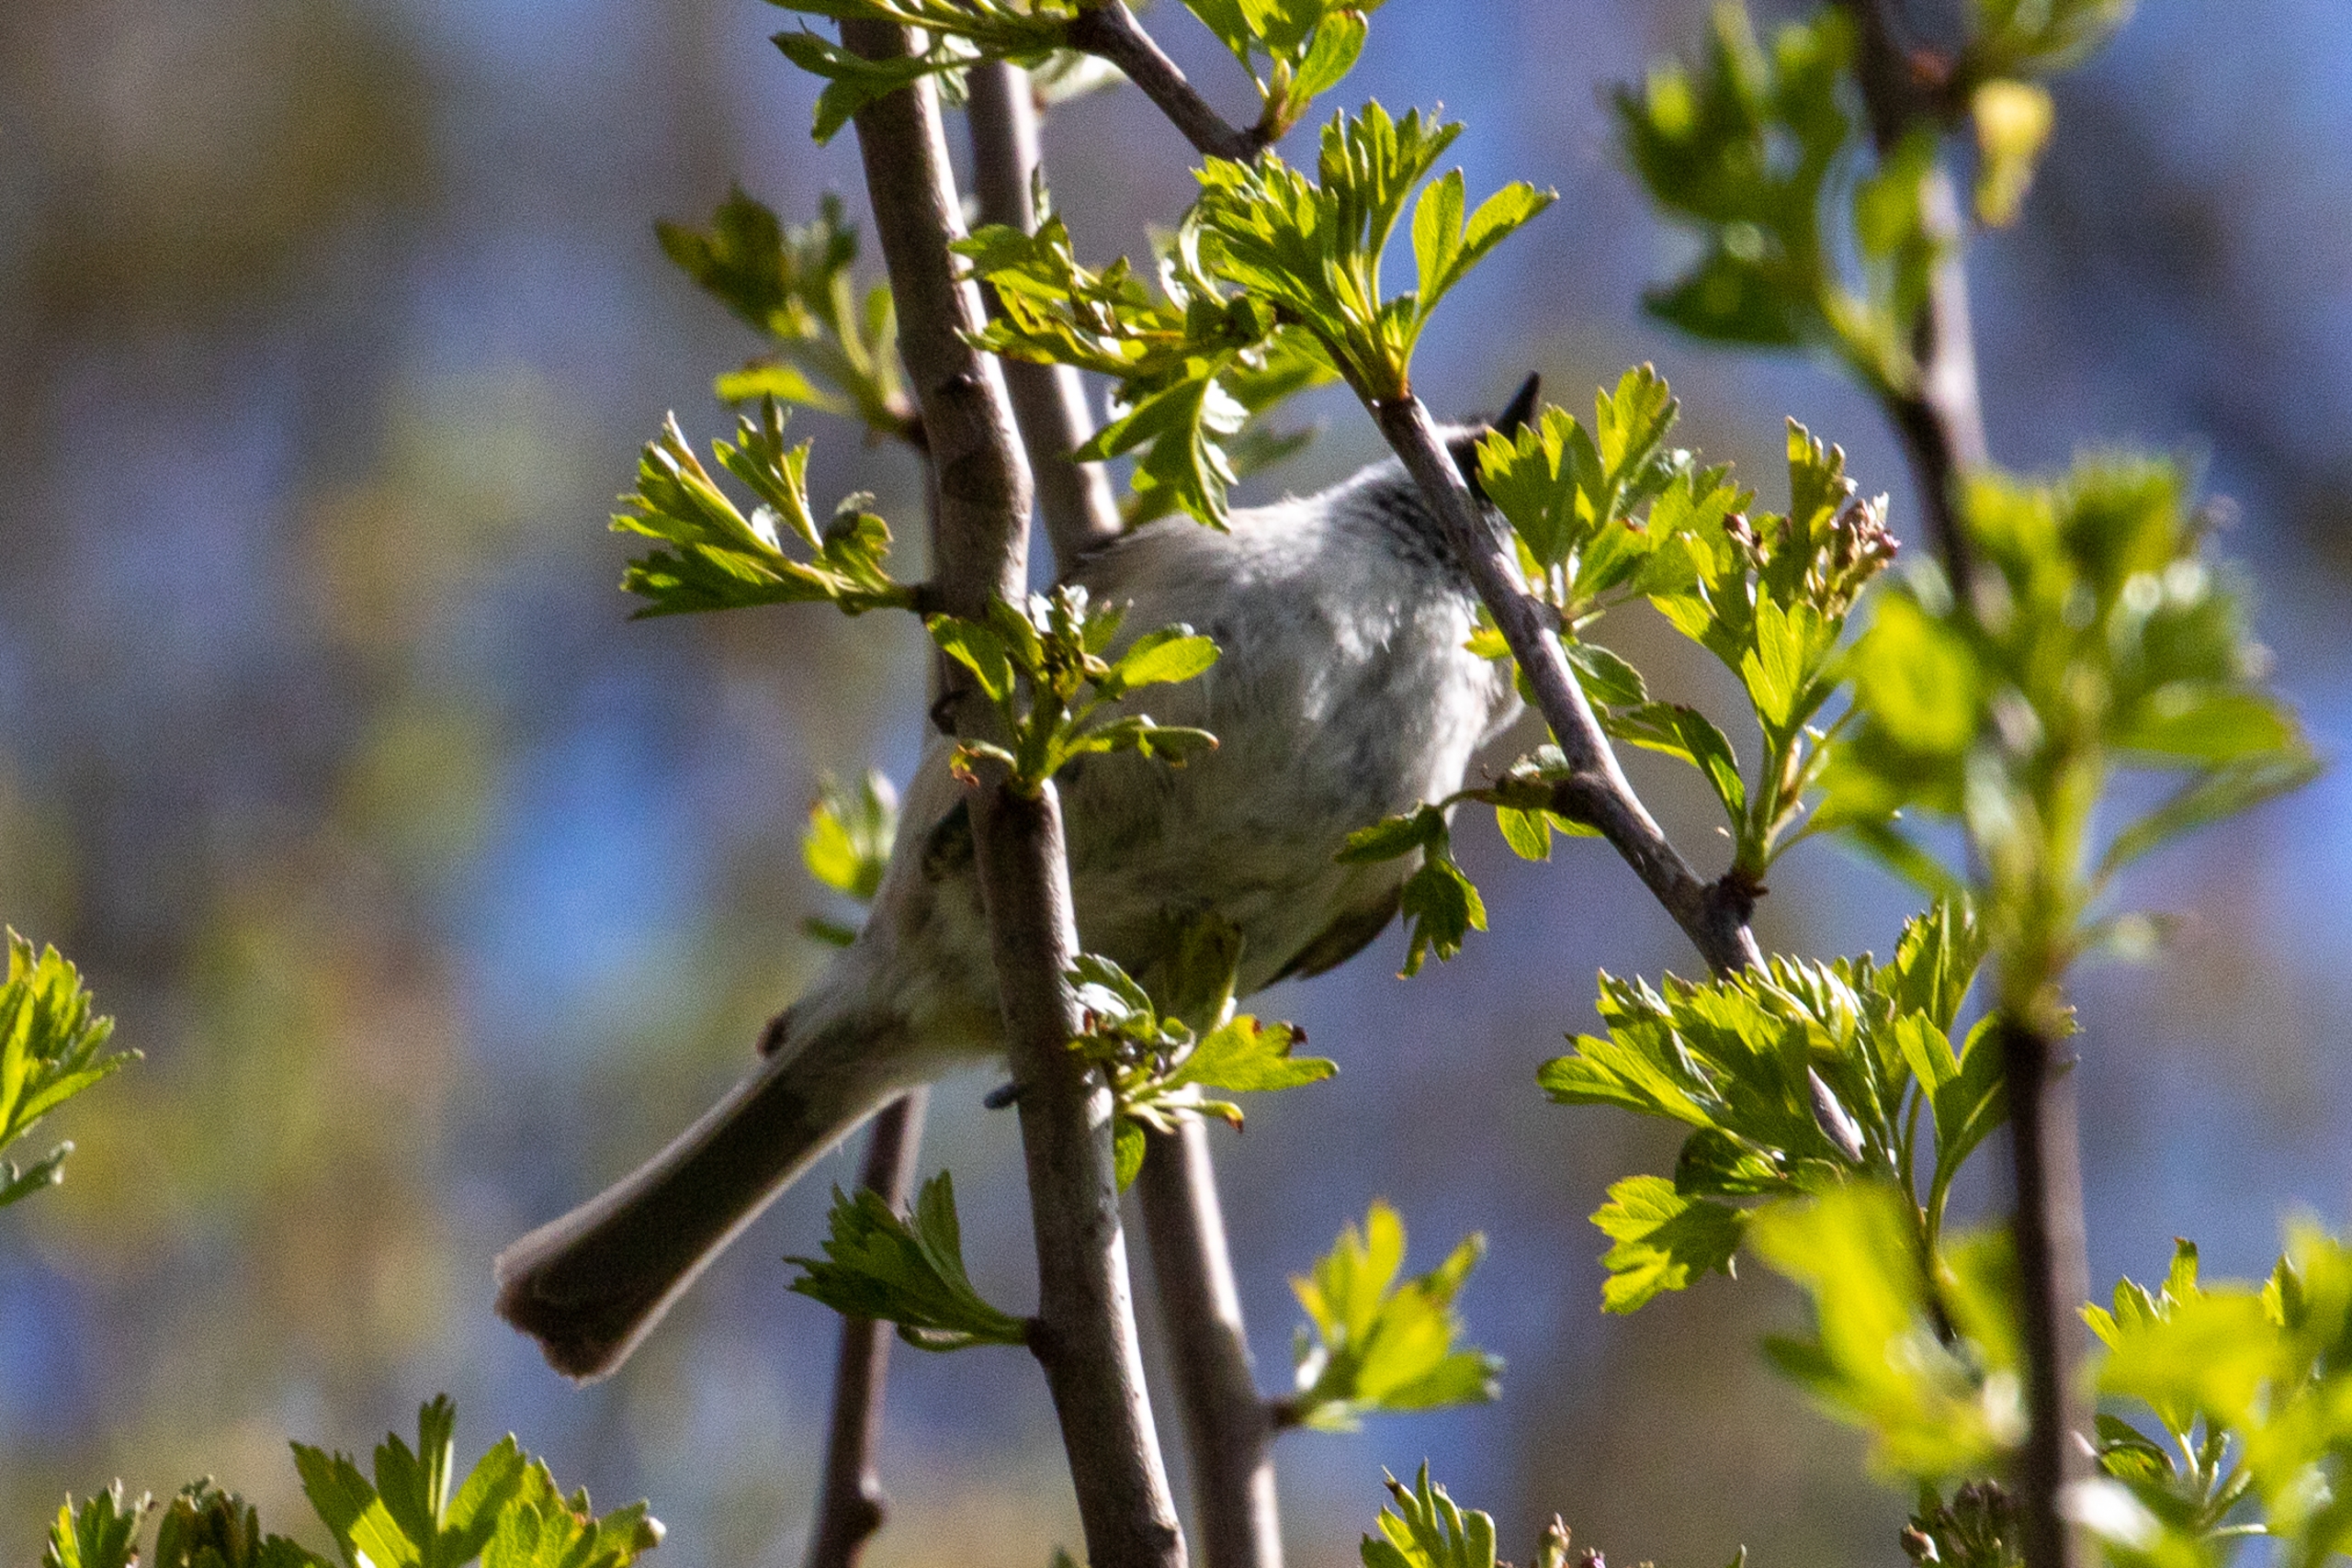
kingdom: Animalia
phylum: Chordata
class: Aves
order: Passeriformes
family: Paridae
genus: Poecile
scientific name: Poecile palustris
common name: Sumpmejse
